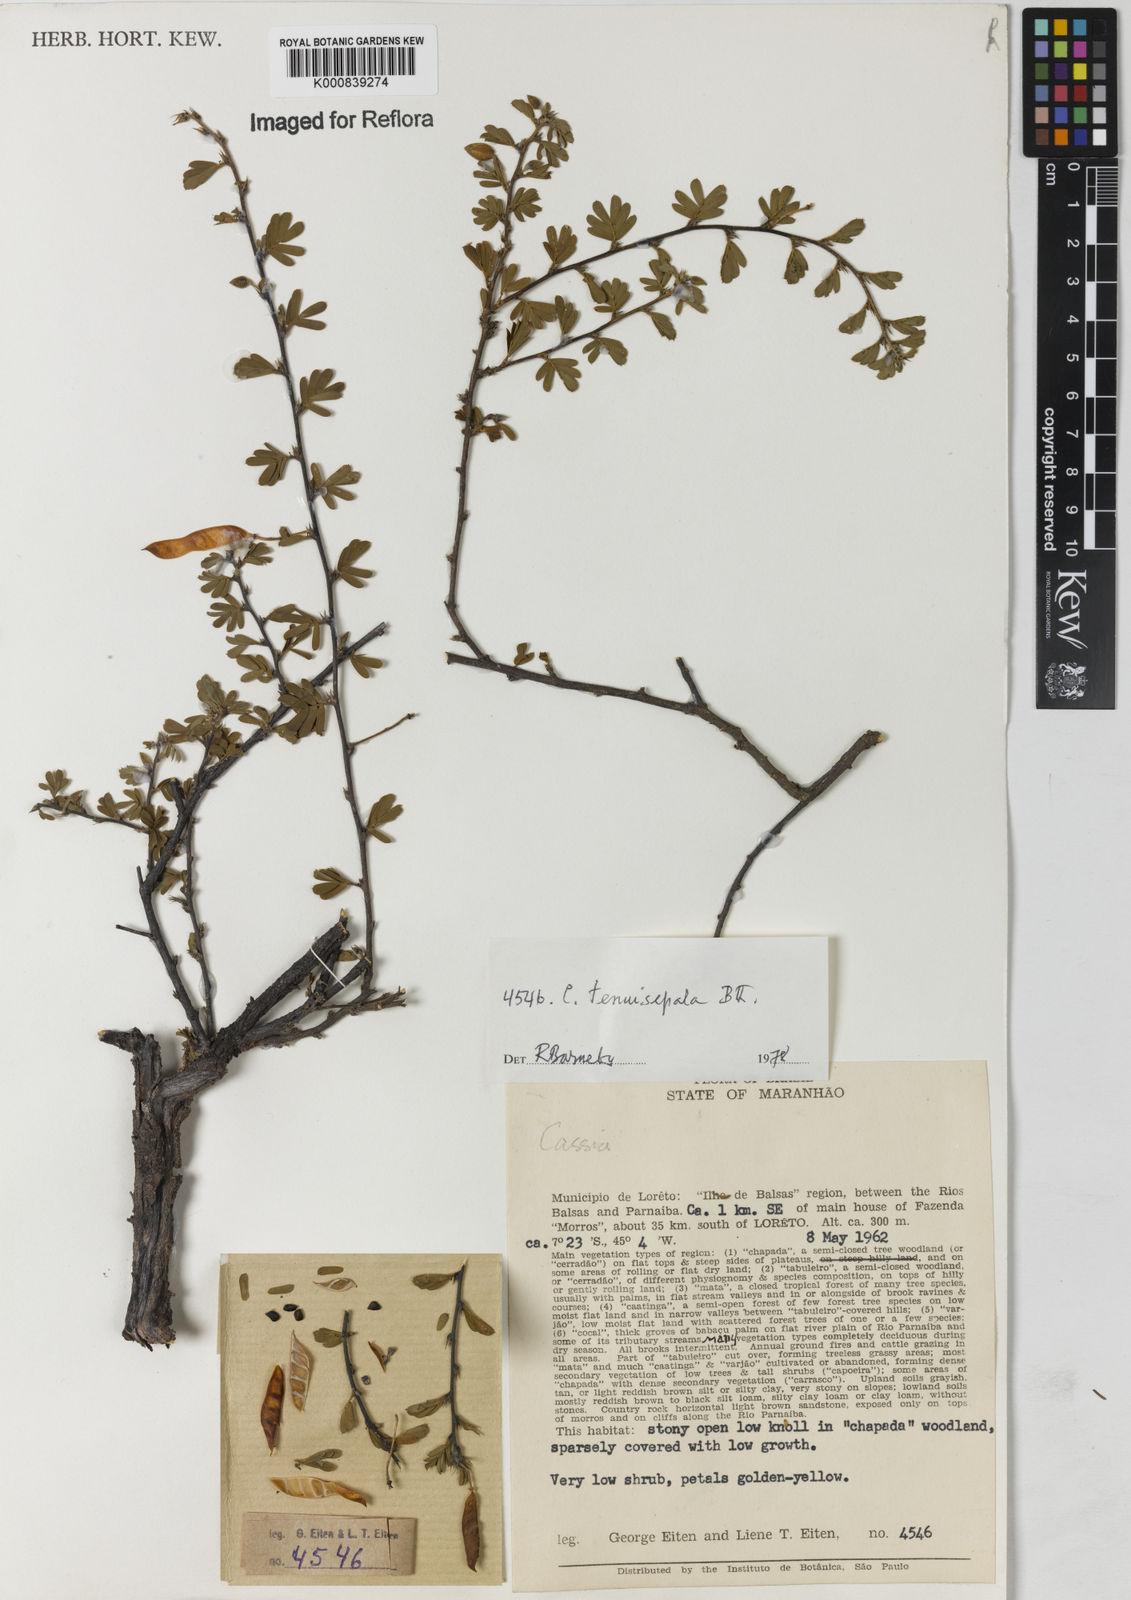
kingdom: Plantae
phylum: Tracheophyta
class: Magnoliopsida
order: Fabales
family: Fabaceae
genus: Chamaecrista
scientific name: Chamaecrista tenuisepala
